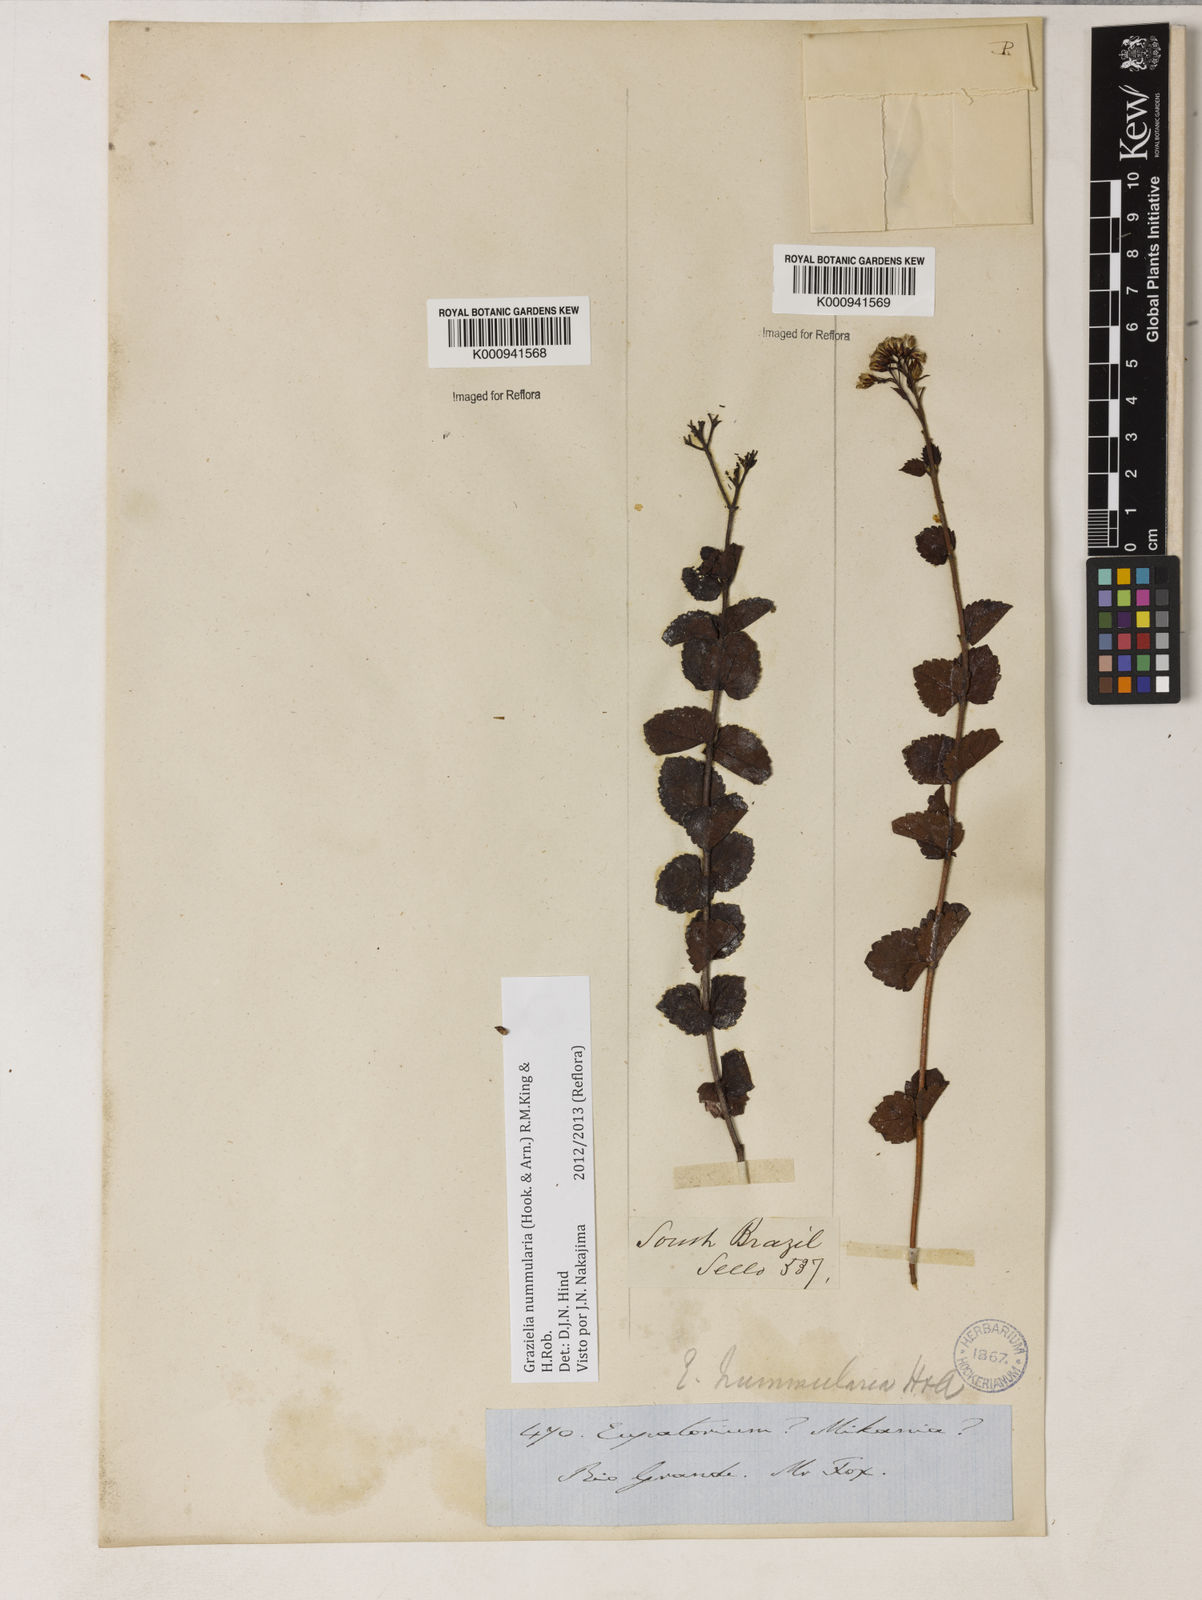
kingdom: Plantae
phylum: Tracheophyta
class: Magnoliopsida
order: Asterales
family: Asteraceae
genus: Grazielia
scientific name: Grazielia nummularia
